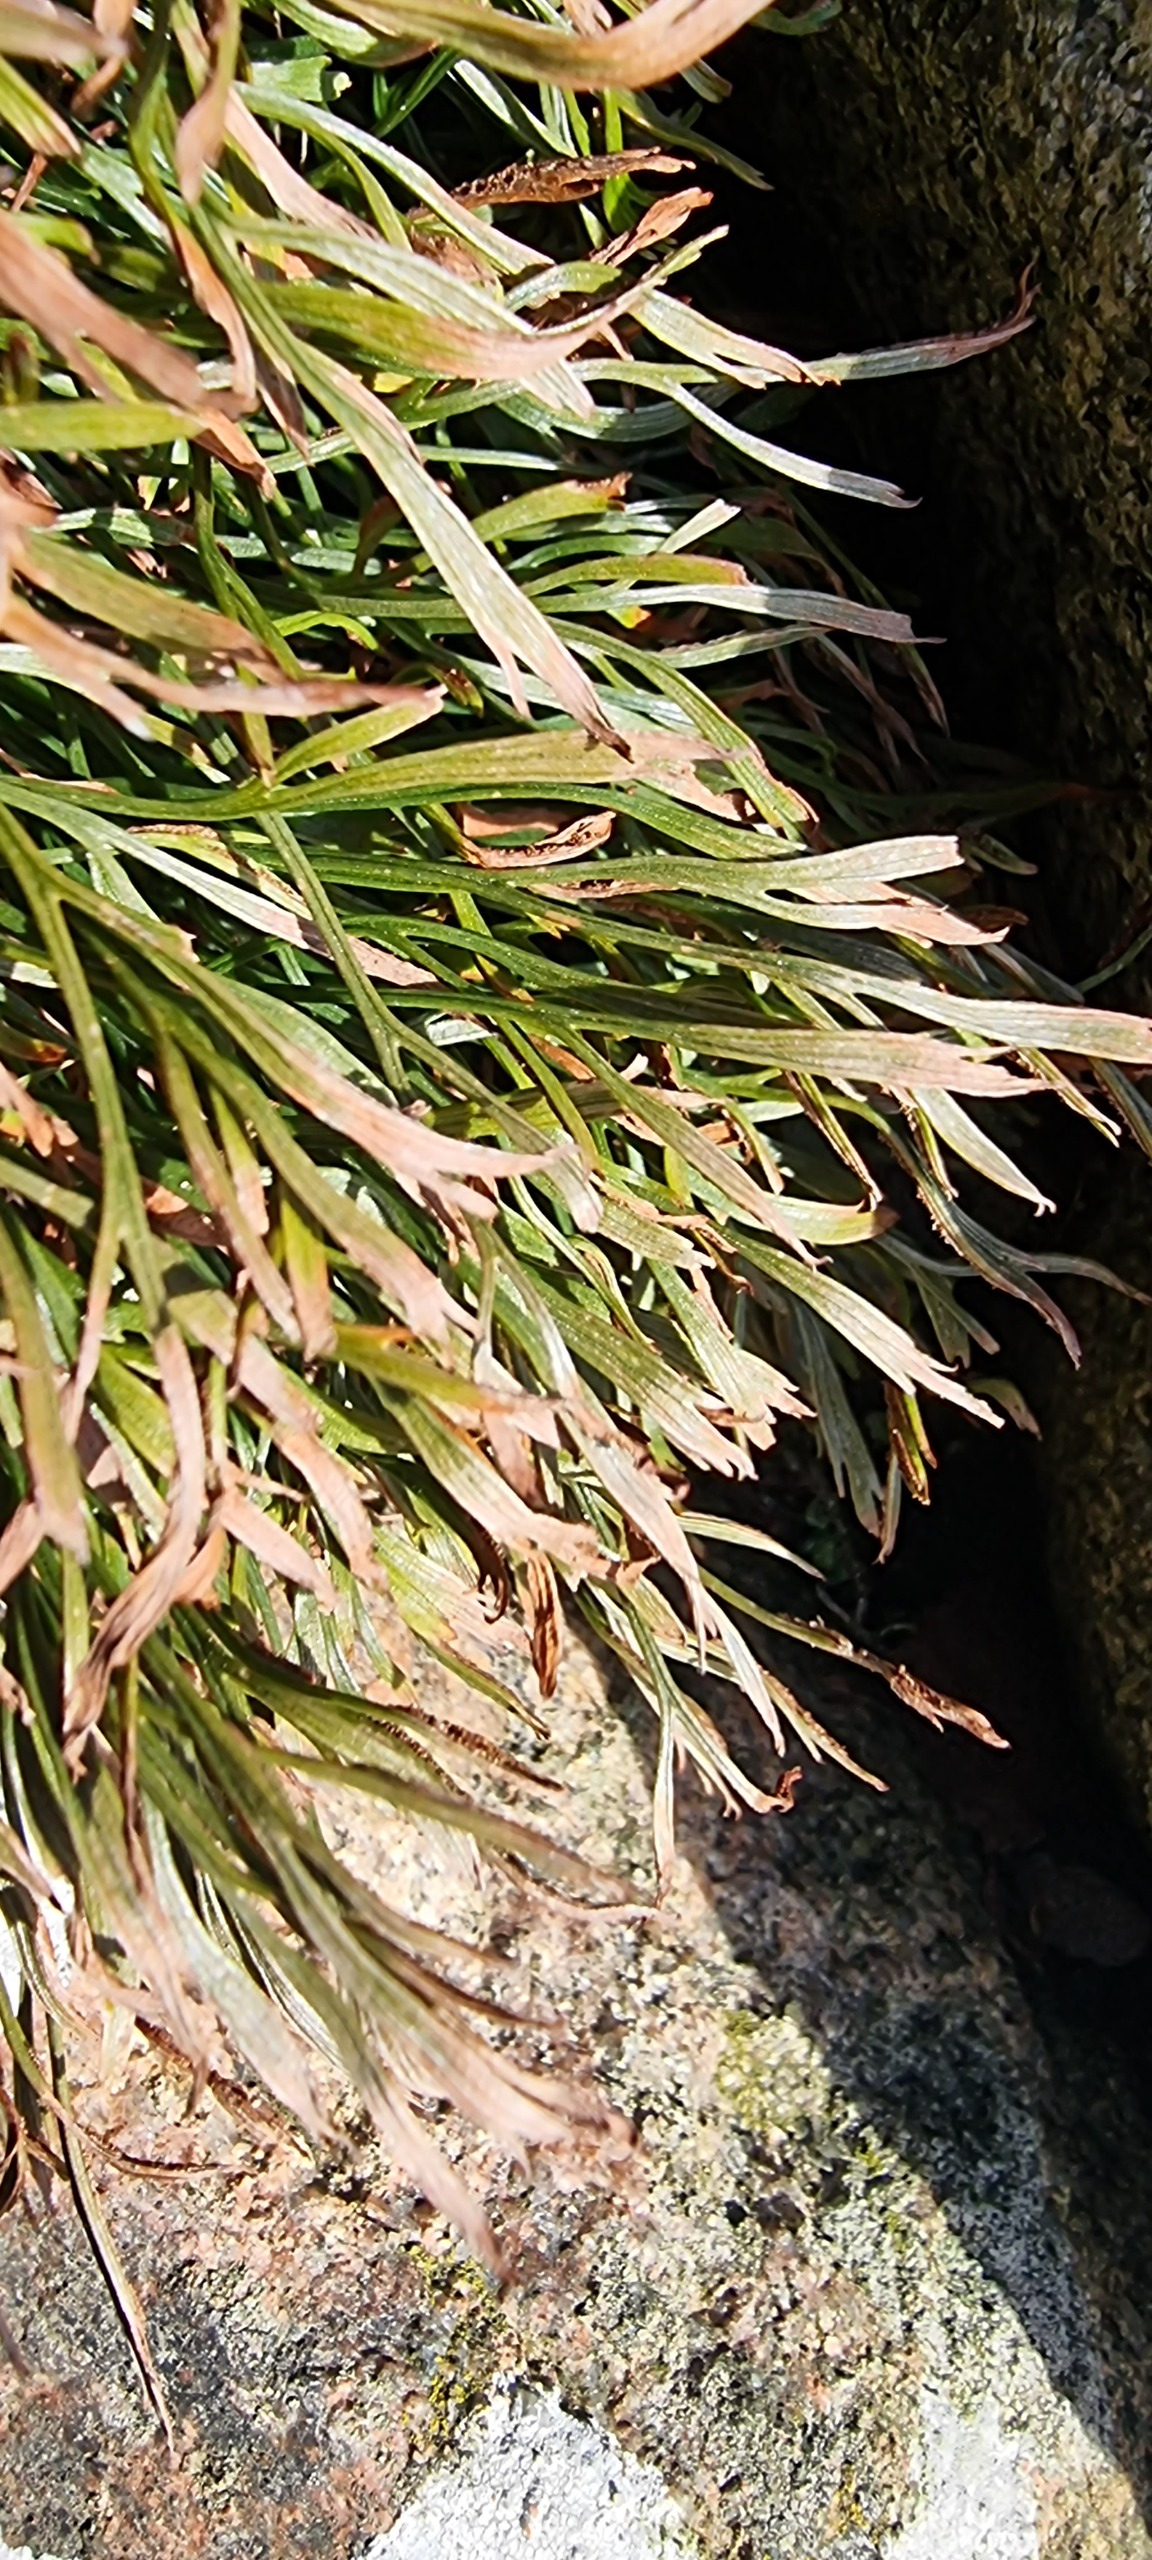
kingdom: Plantae
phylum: Tracheophyta
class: Polypodiopsida
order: Polypodiales
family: Aspleniaceae
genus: Asplenium
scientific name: Asplenium septentrionale
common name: Nordisk radeløv
